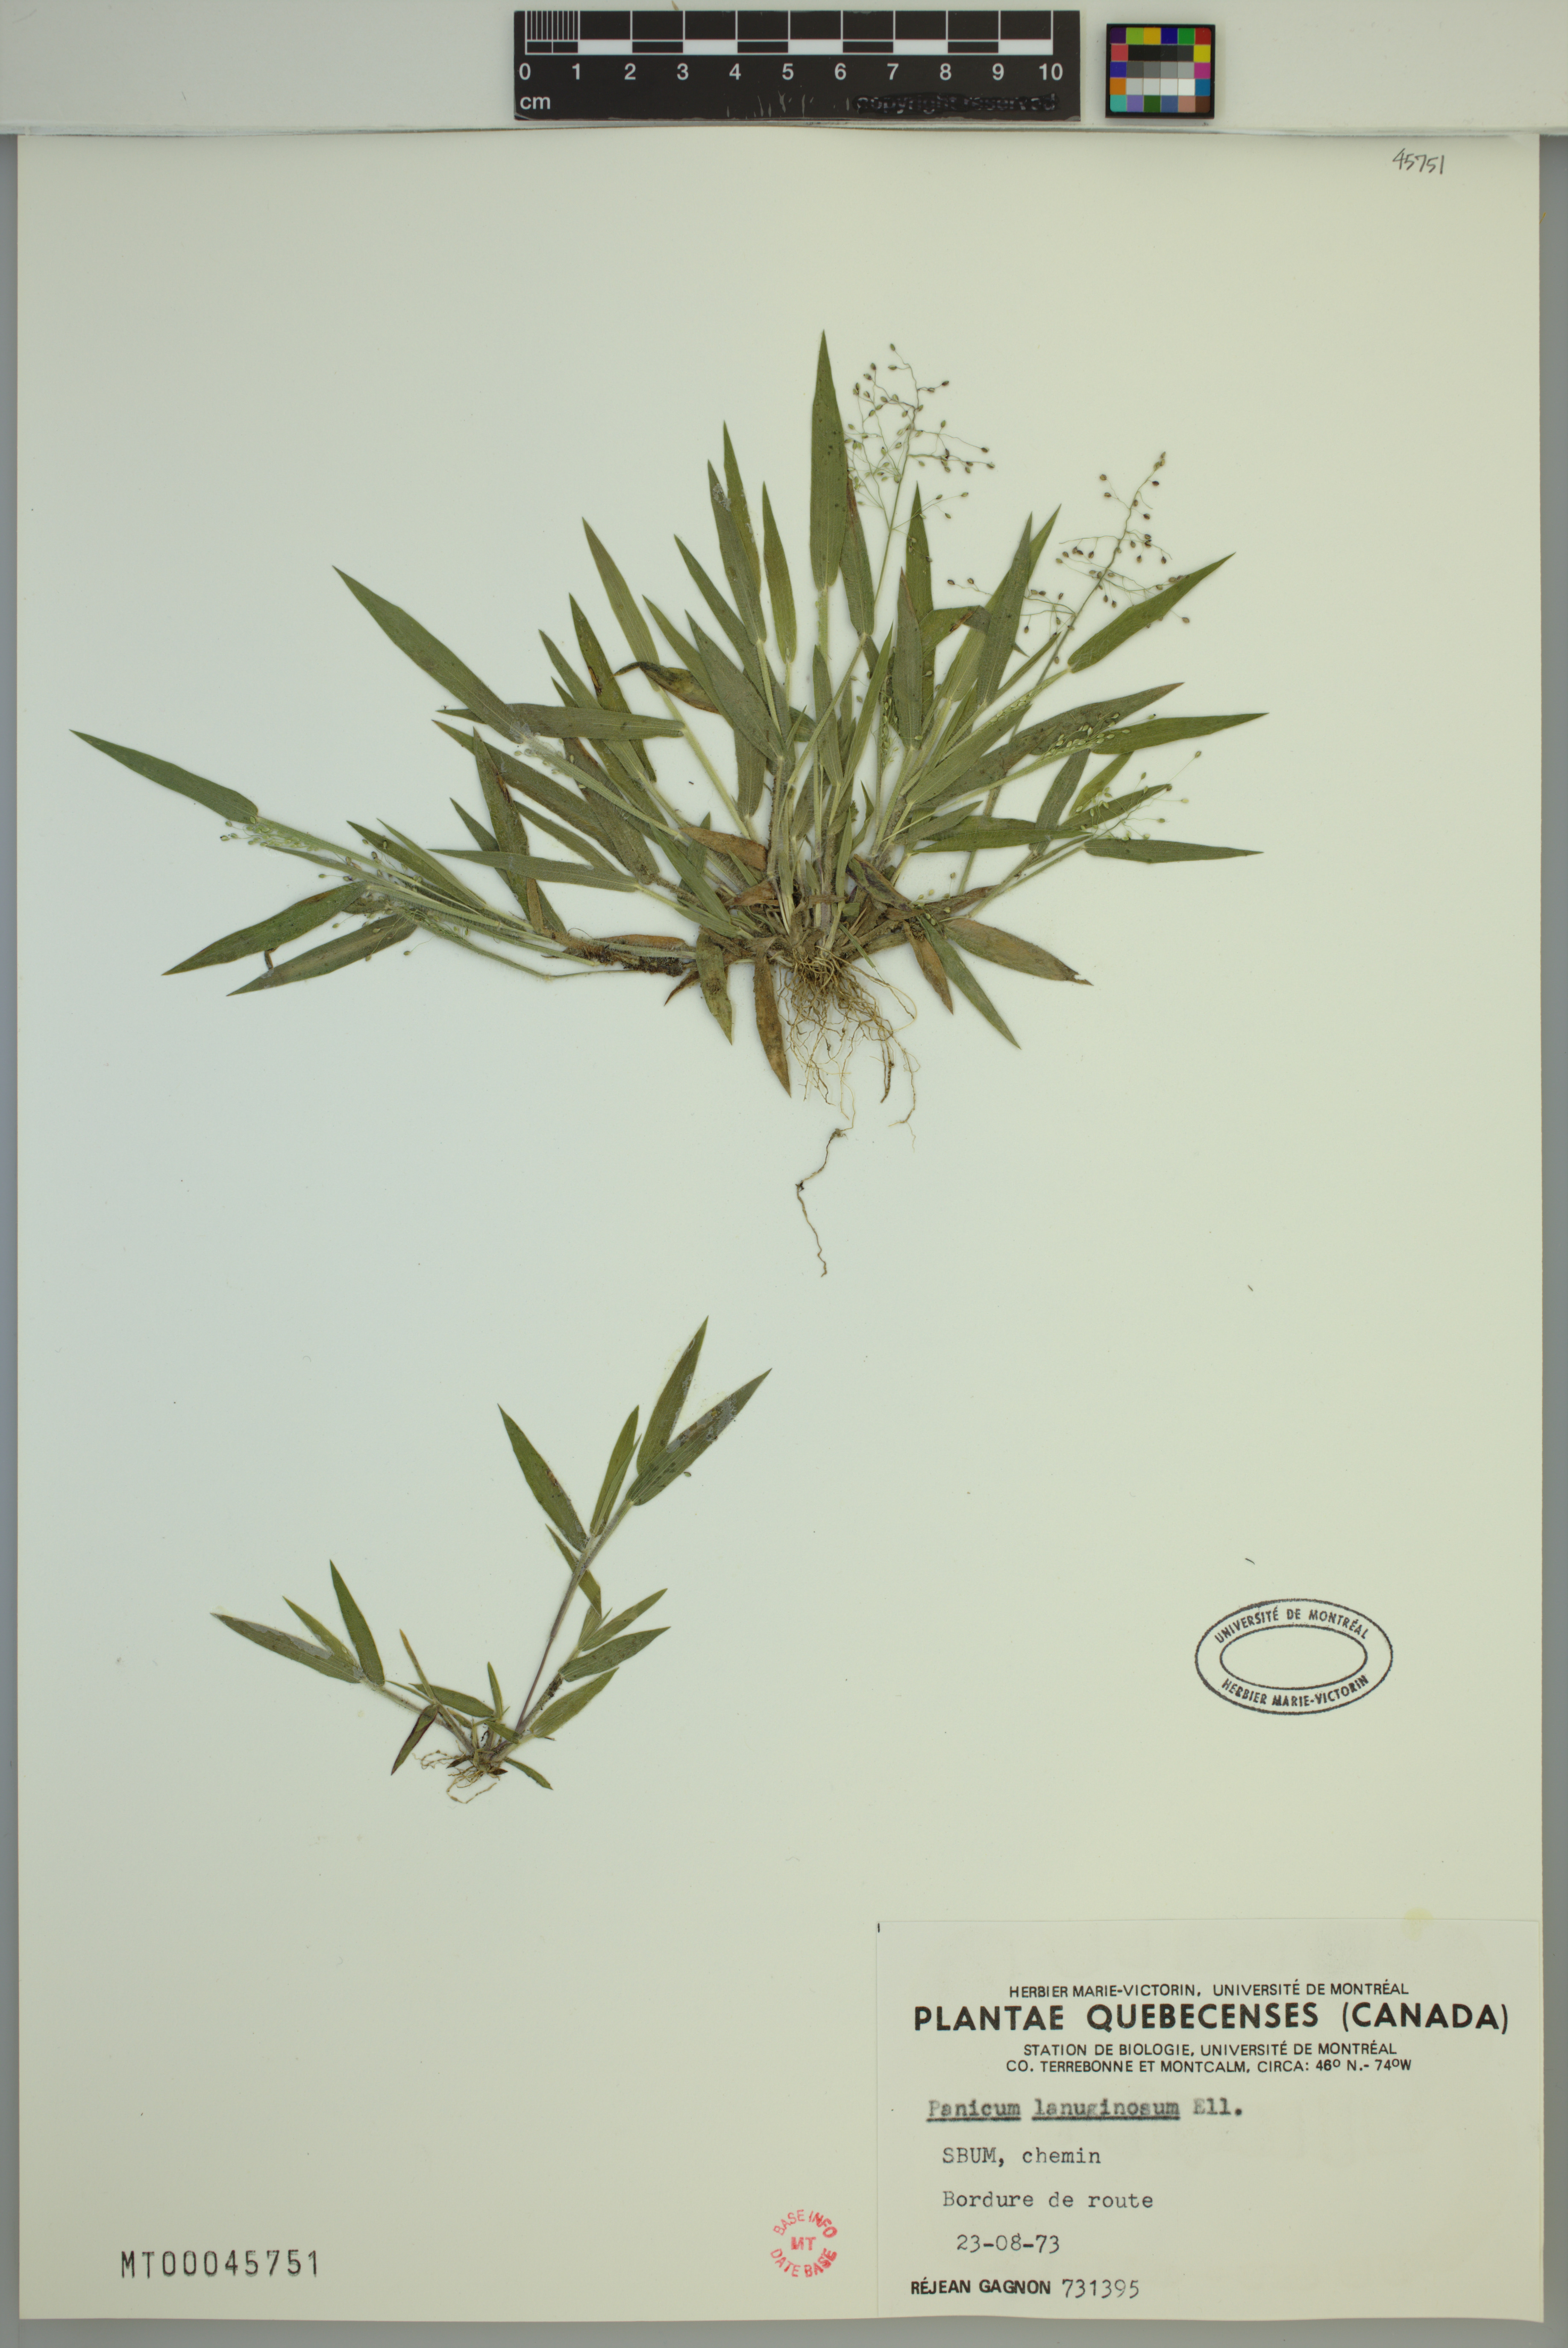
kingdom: Plantae
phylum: Tracheophyta
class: Liliopsida
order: Poales
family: Poaceae
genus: Dichanthelium
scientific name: Dichanthelium lanuginosum
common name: Woolly panicgrass
